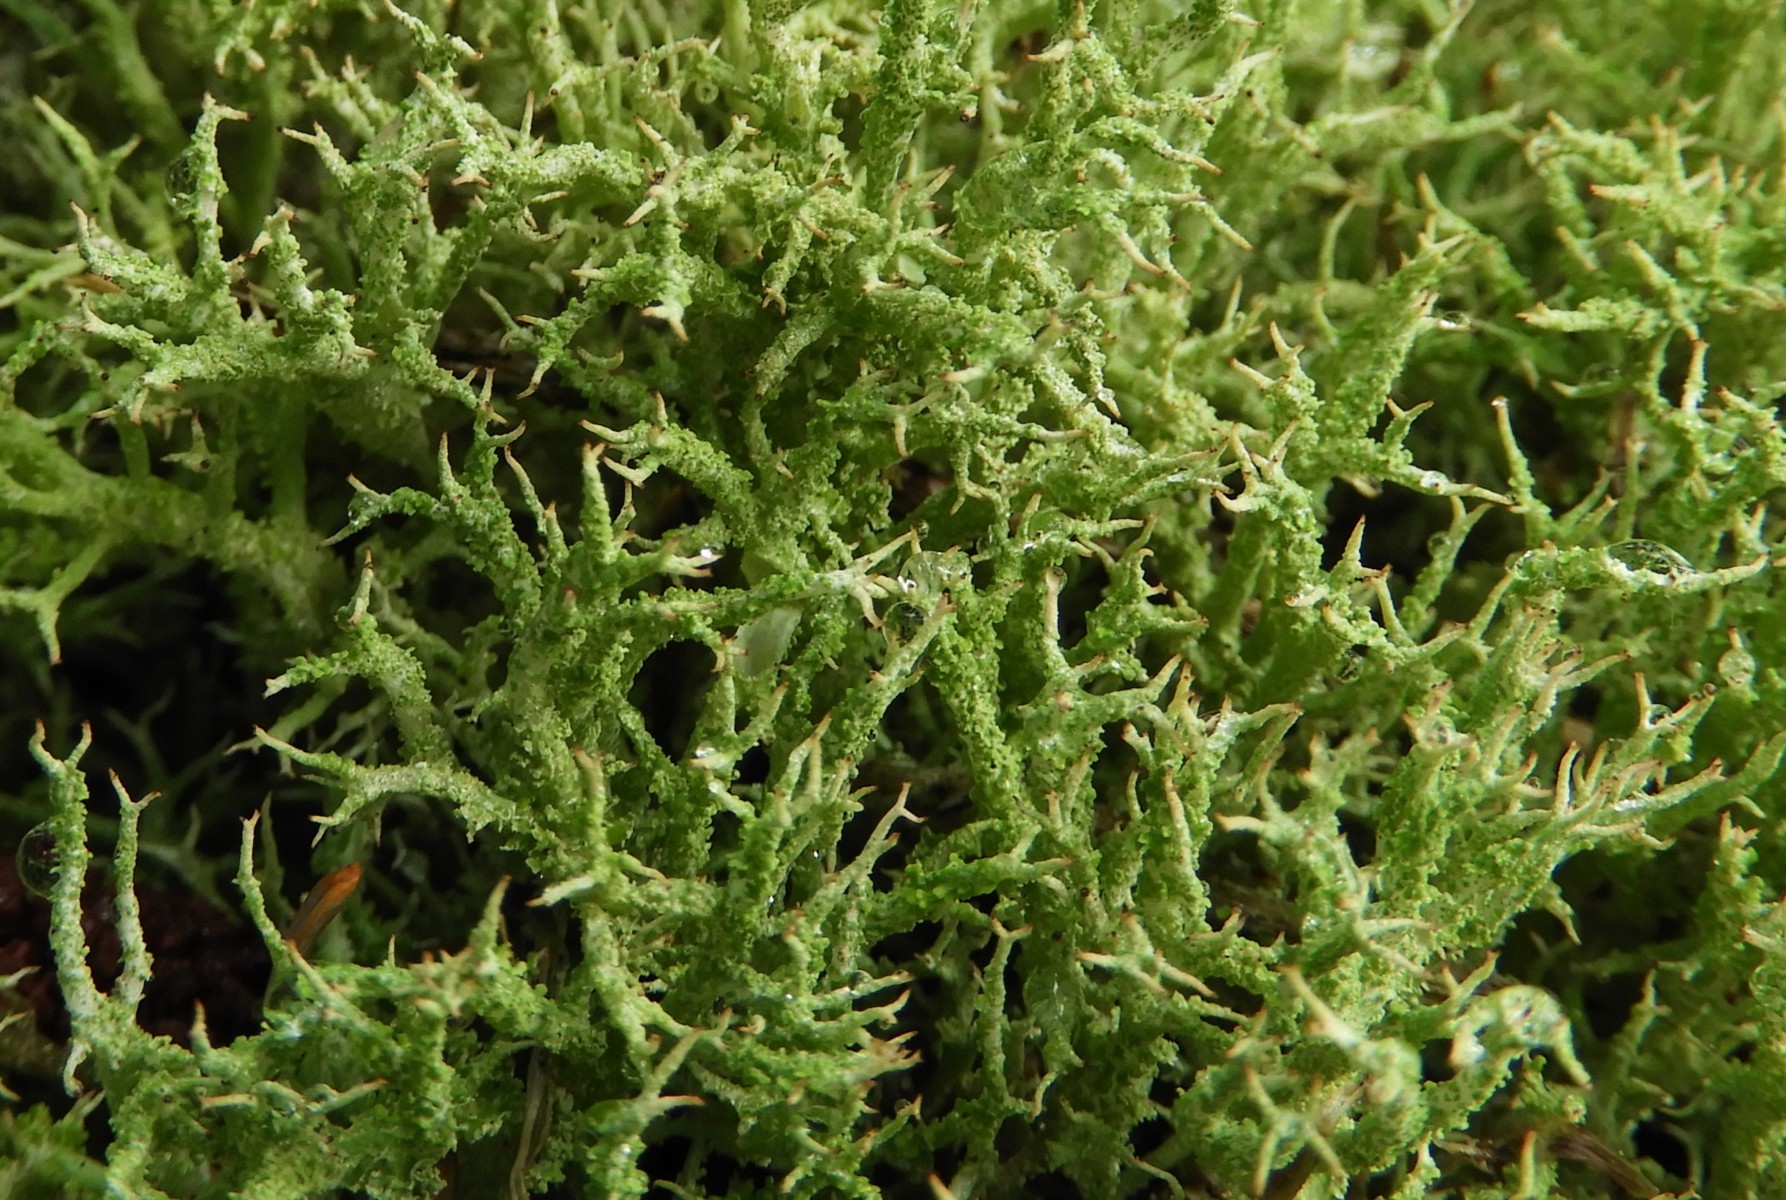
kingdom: Fungi
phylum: Ascomycota
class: Lecanoromycetes
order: Lecanorales
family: Cladoniaceae
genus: Cladonia
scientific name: Cladonia scabriuscula
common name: ru bægerlav
